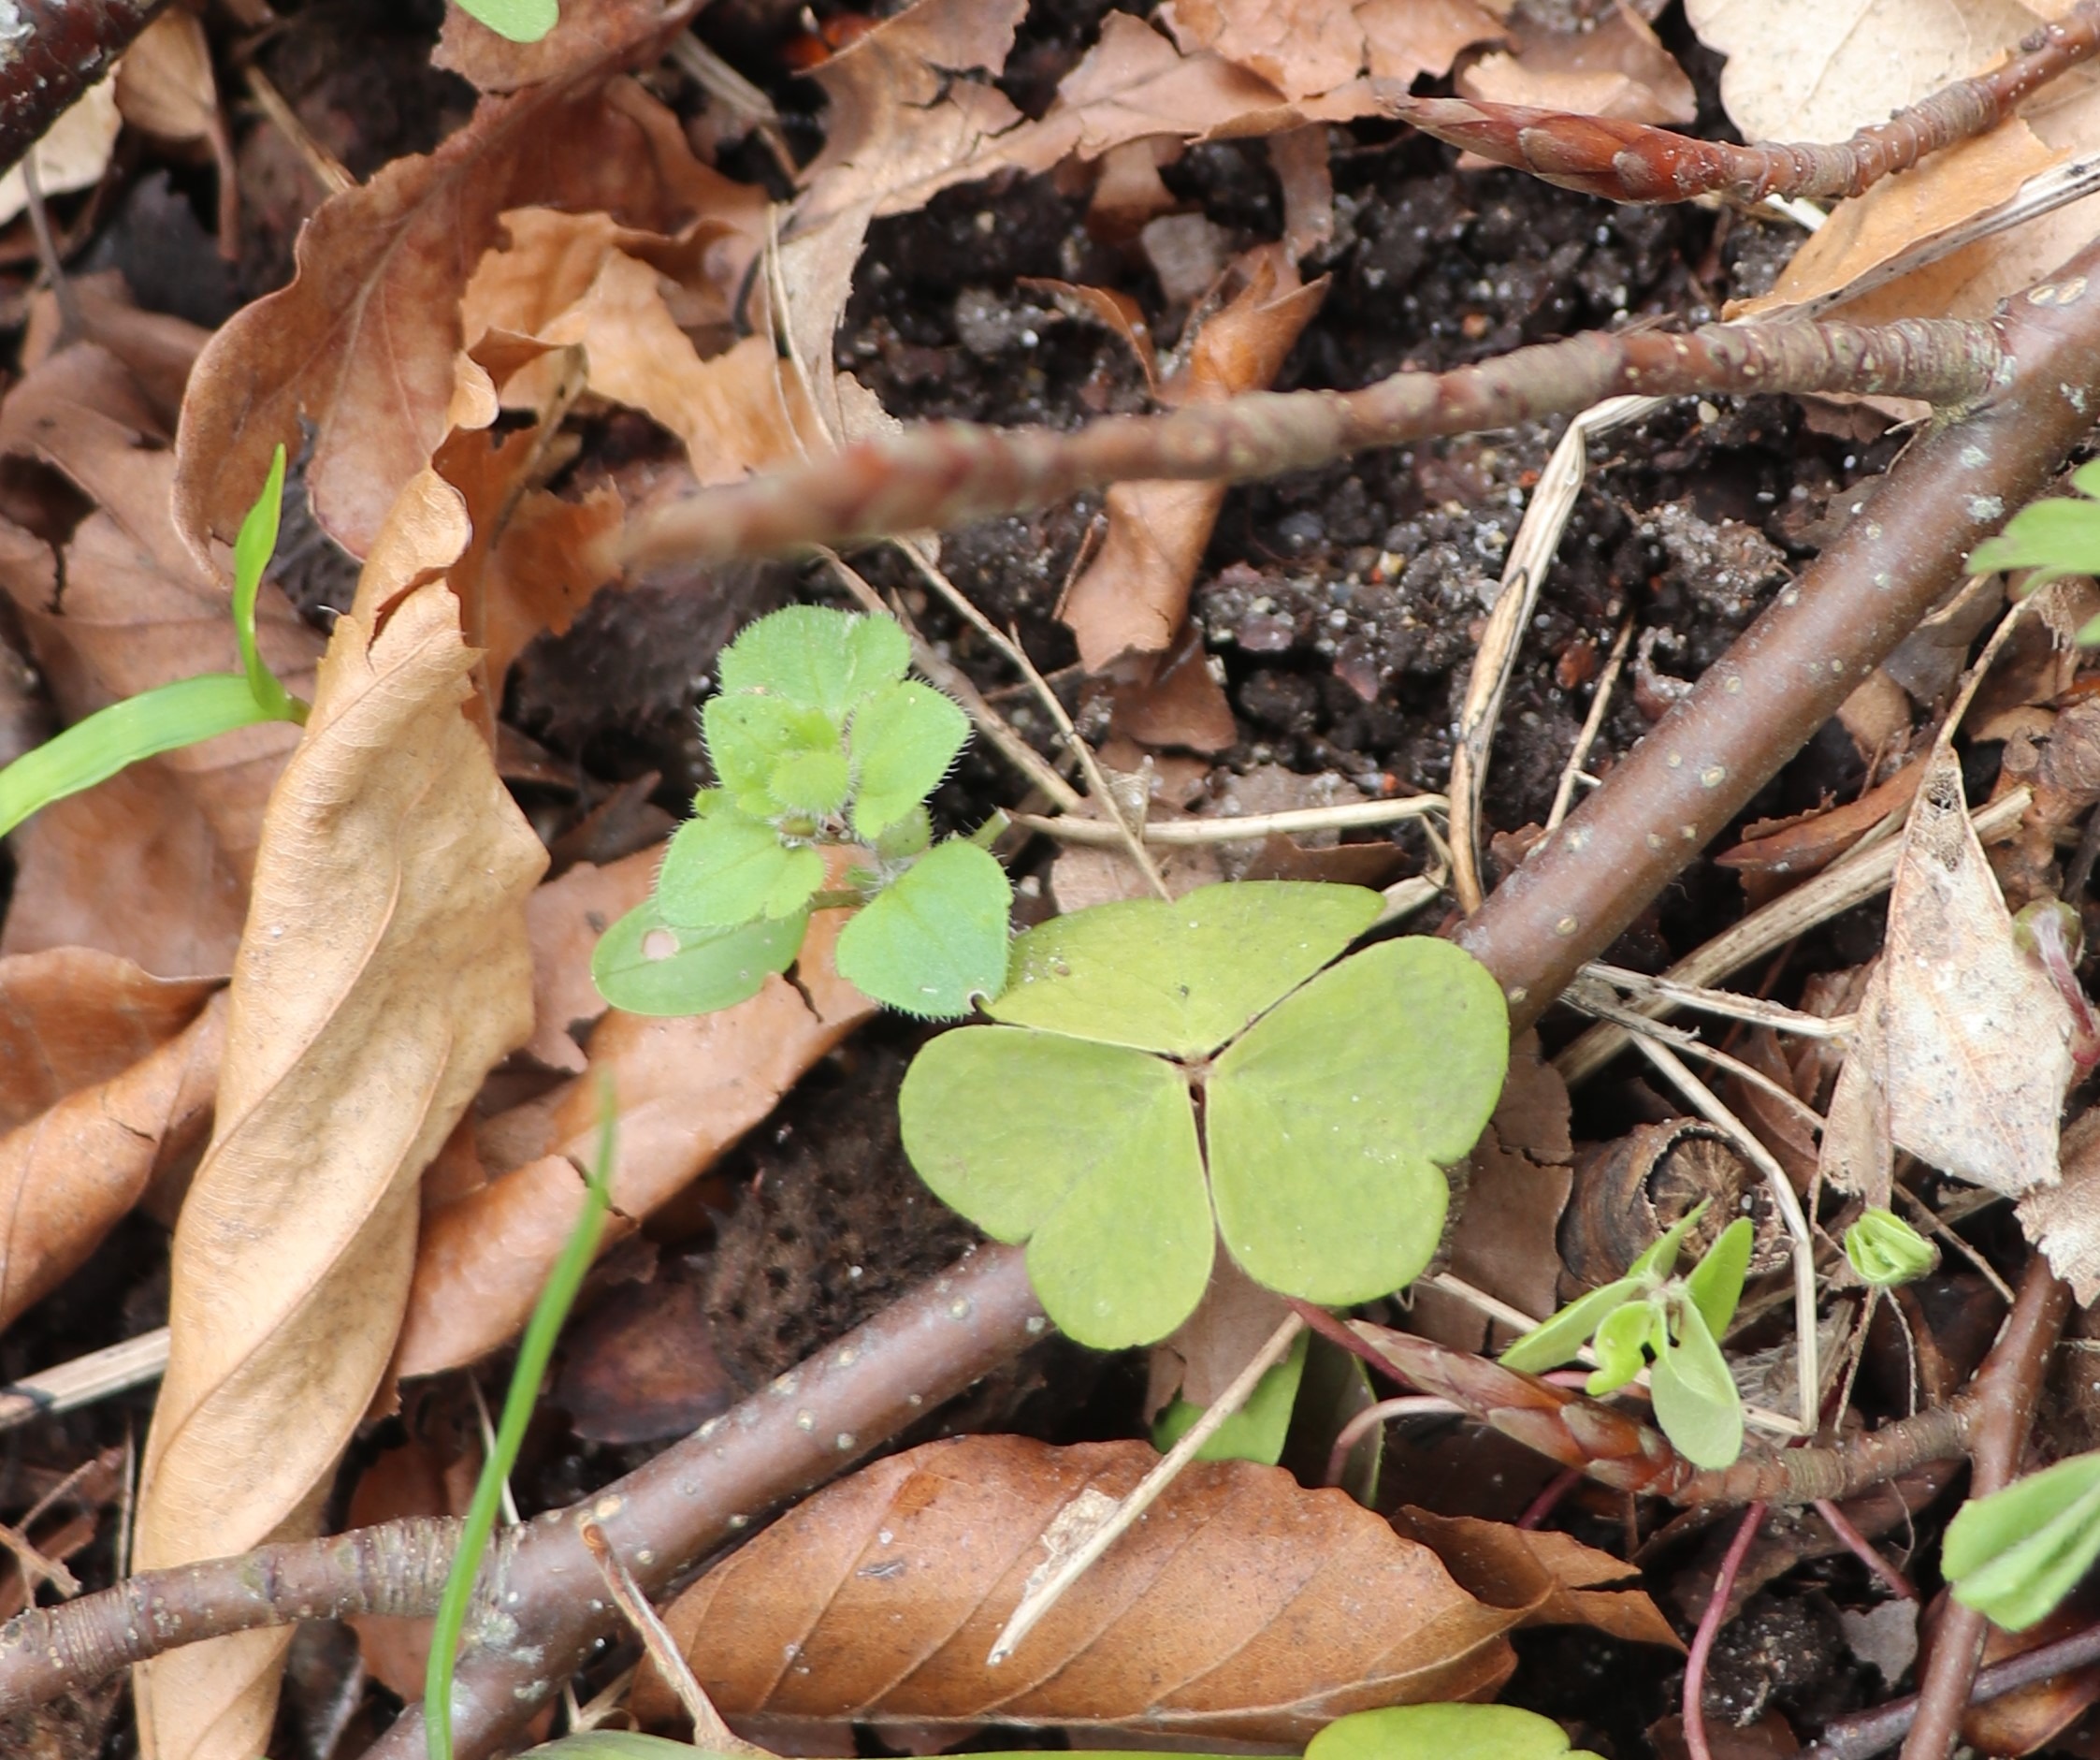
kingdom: Plantae
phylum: Tracheophyta
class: Magnoliopsida
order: Oxalidales
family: Oxalidaceae
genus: Oxalis
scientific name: Oxalis acetosella
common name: Skovsyre
